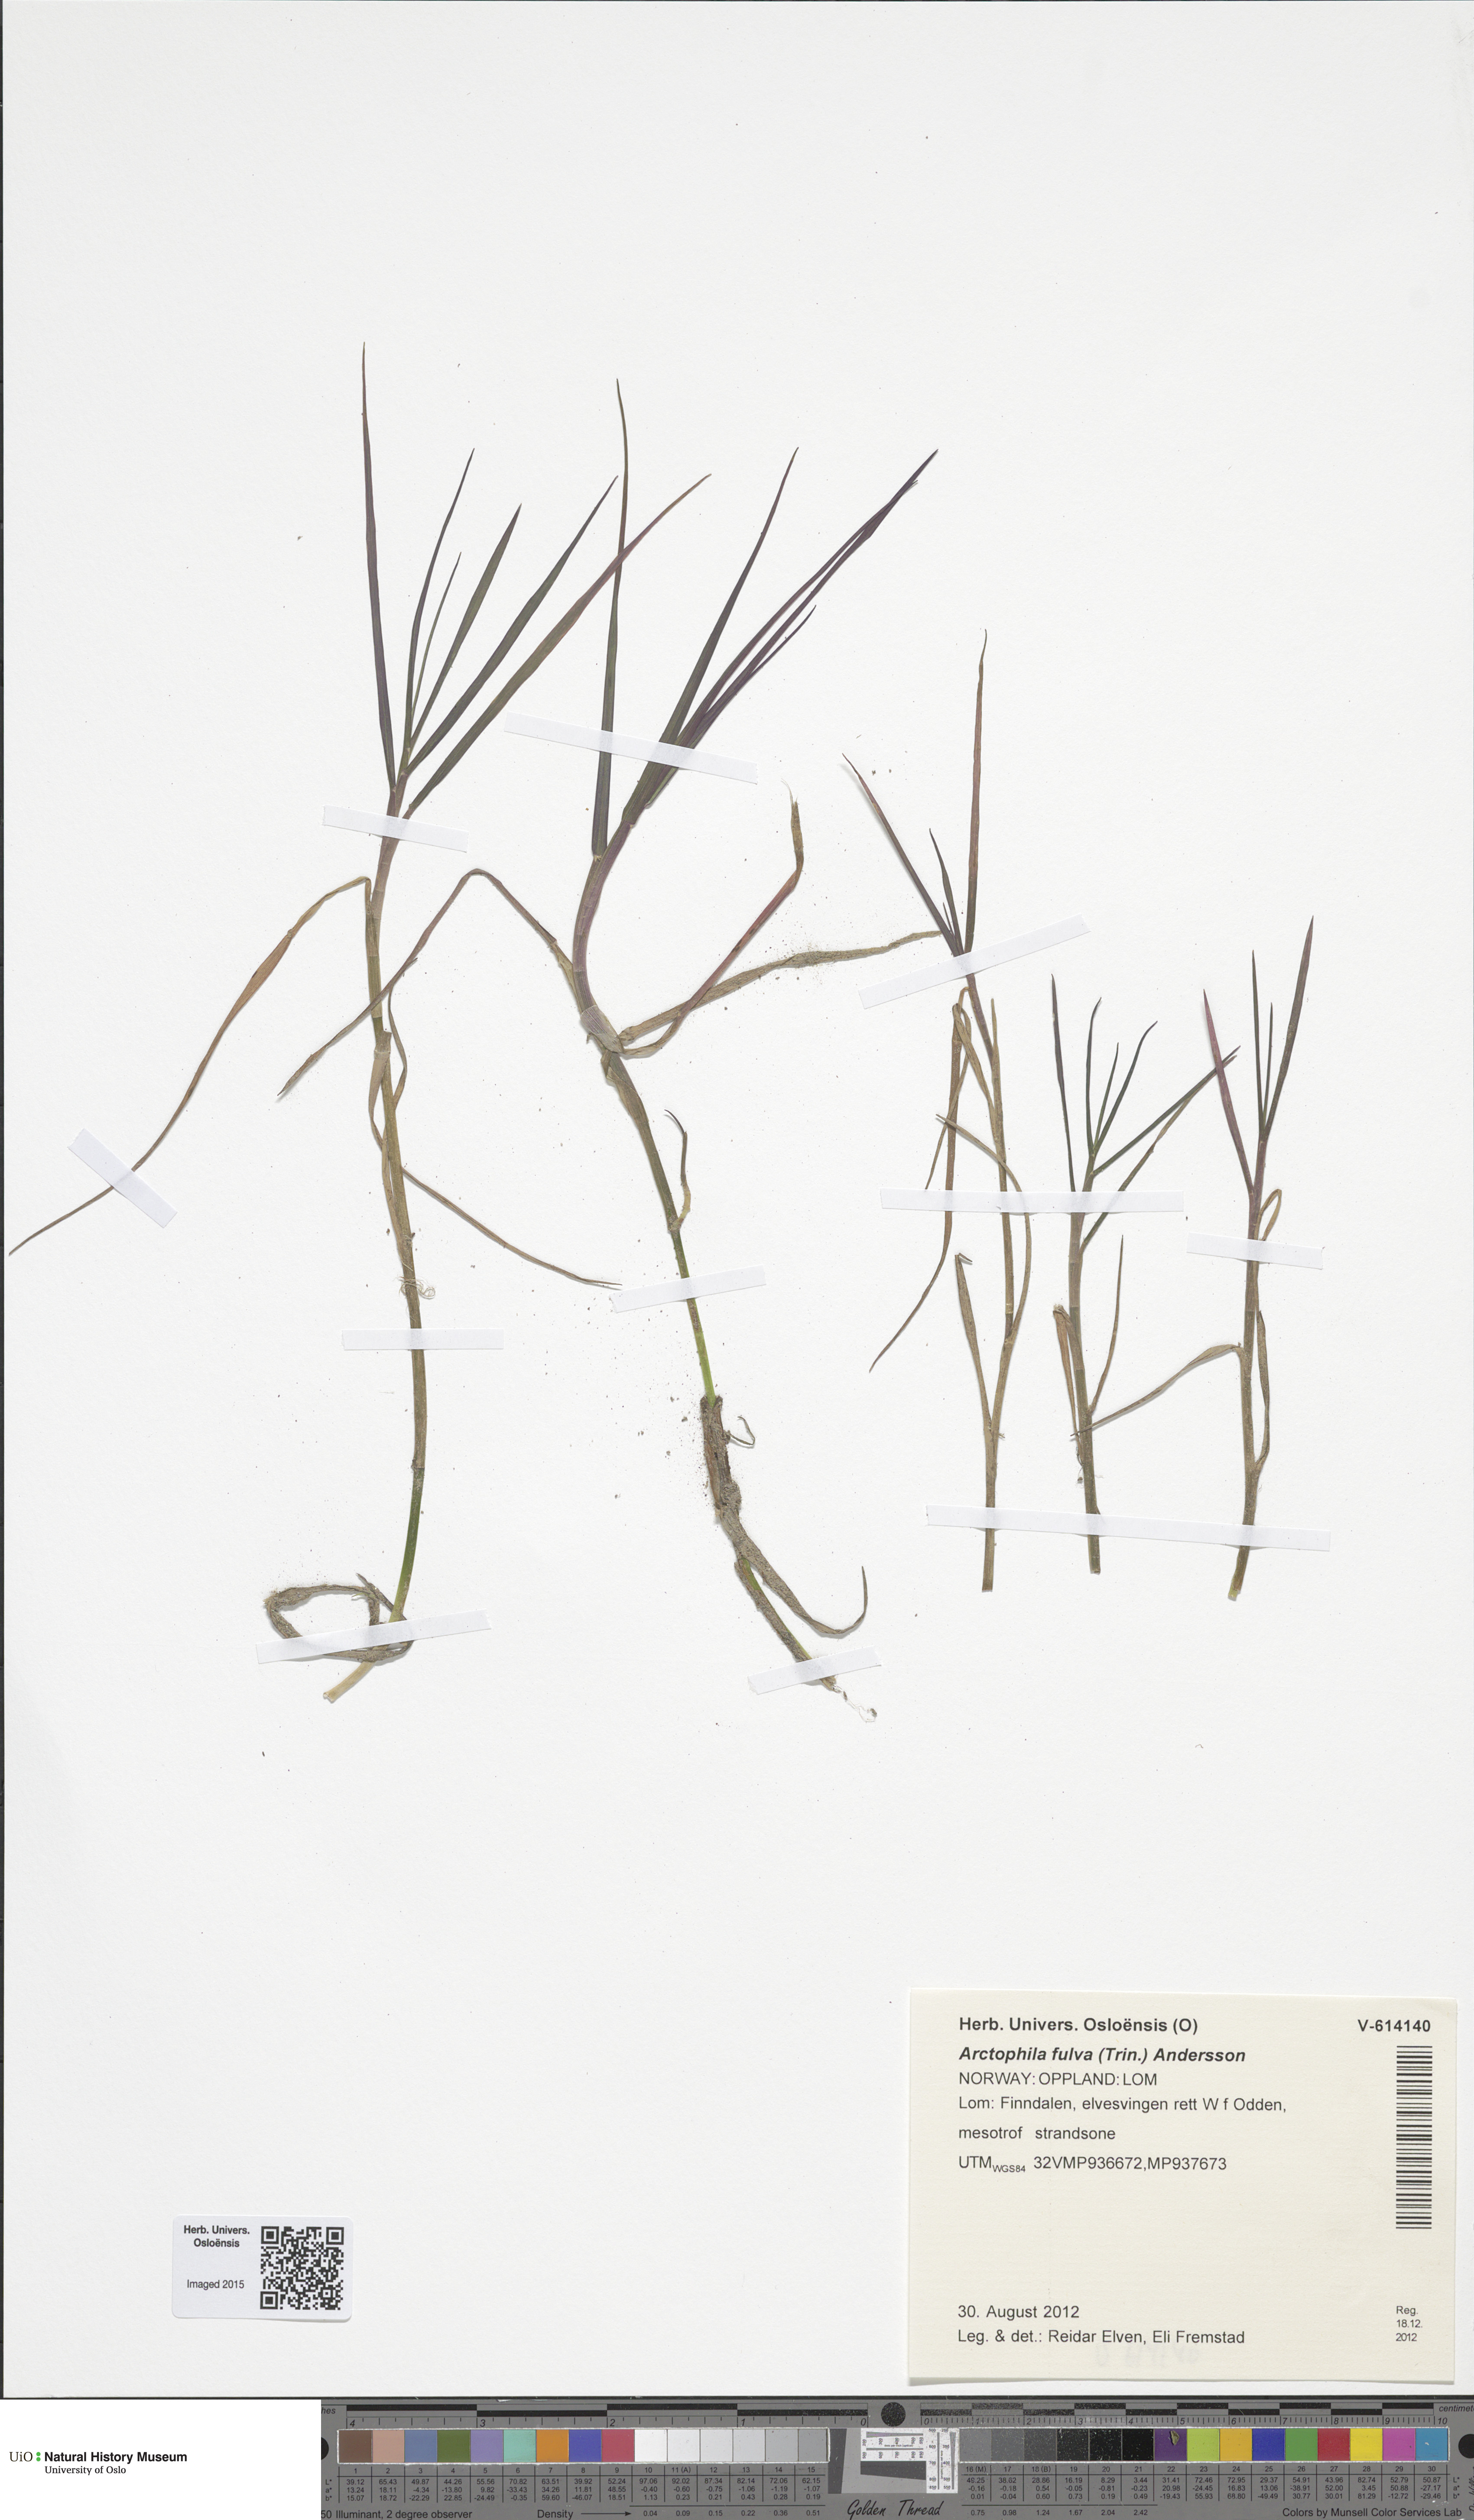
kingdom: Plantae
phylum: Tracheophyta
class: Liliopsida
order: Poales
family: Poaceae
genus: Dupontia
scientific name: Dupontia fulva
